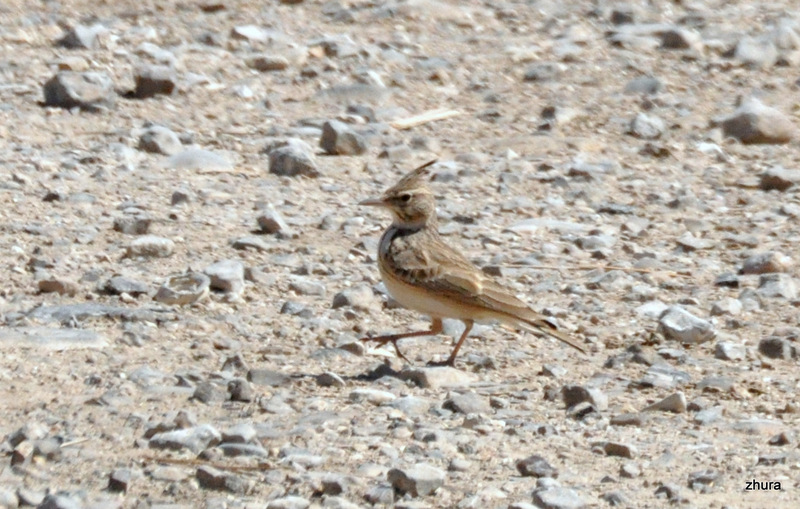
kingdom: Animalia
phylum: Chordata
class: Aves
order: Passeriformes
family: Alaudidae
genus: Galerida
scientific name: Galerida cristata
